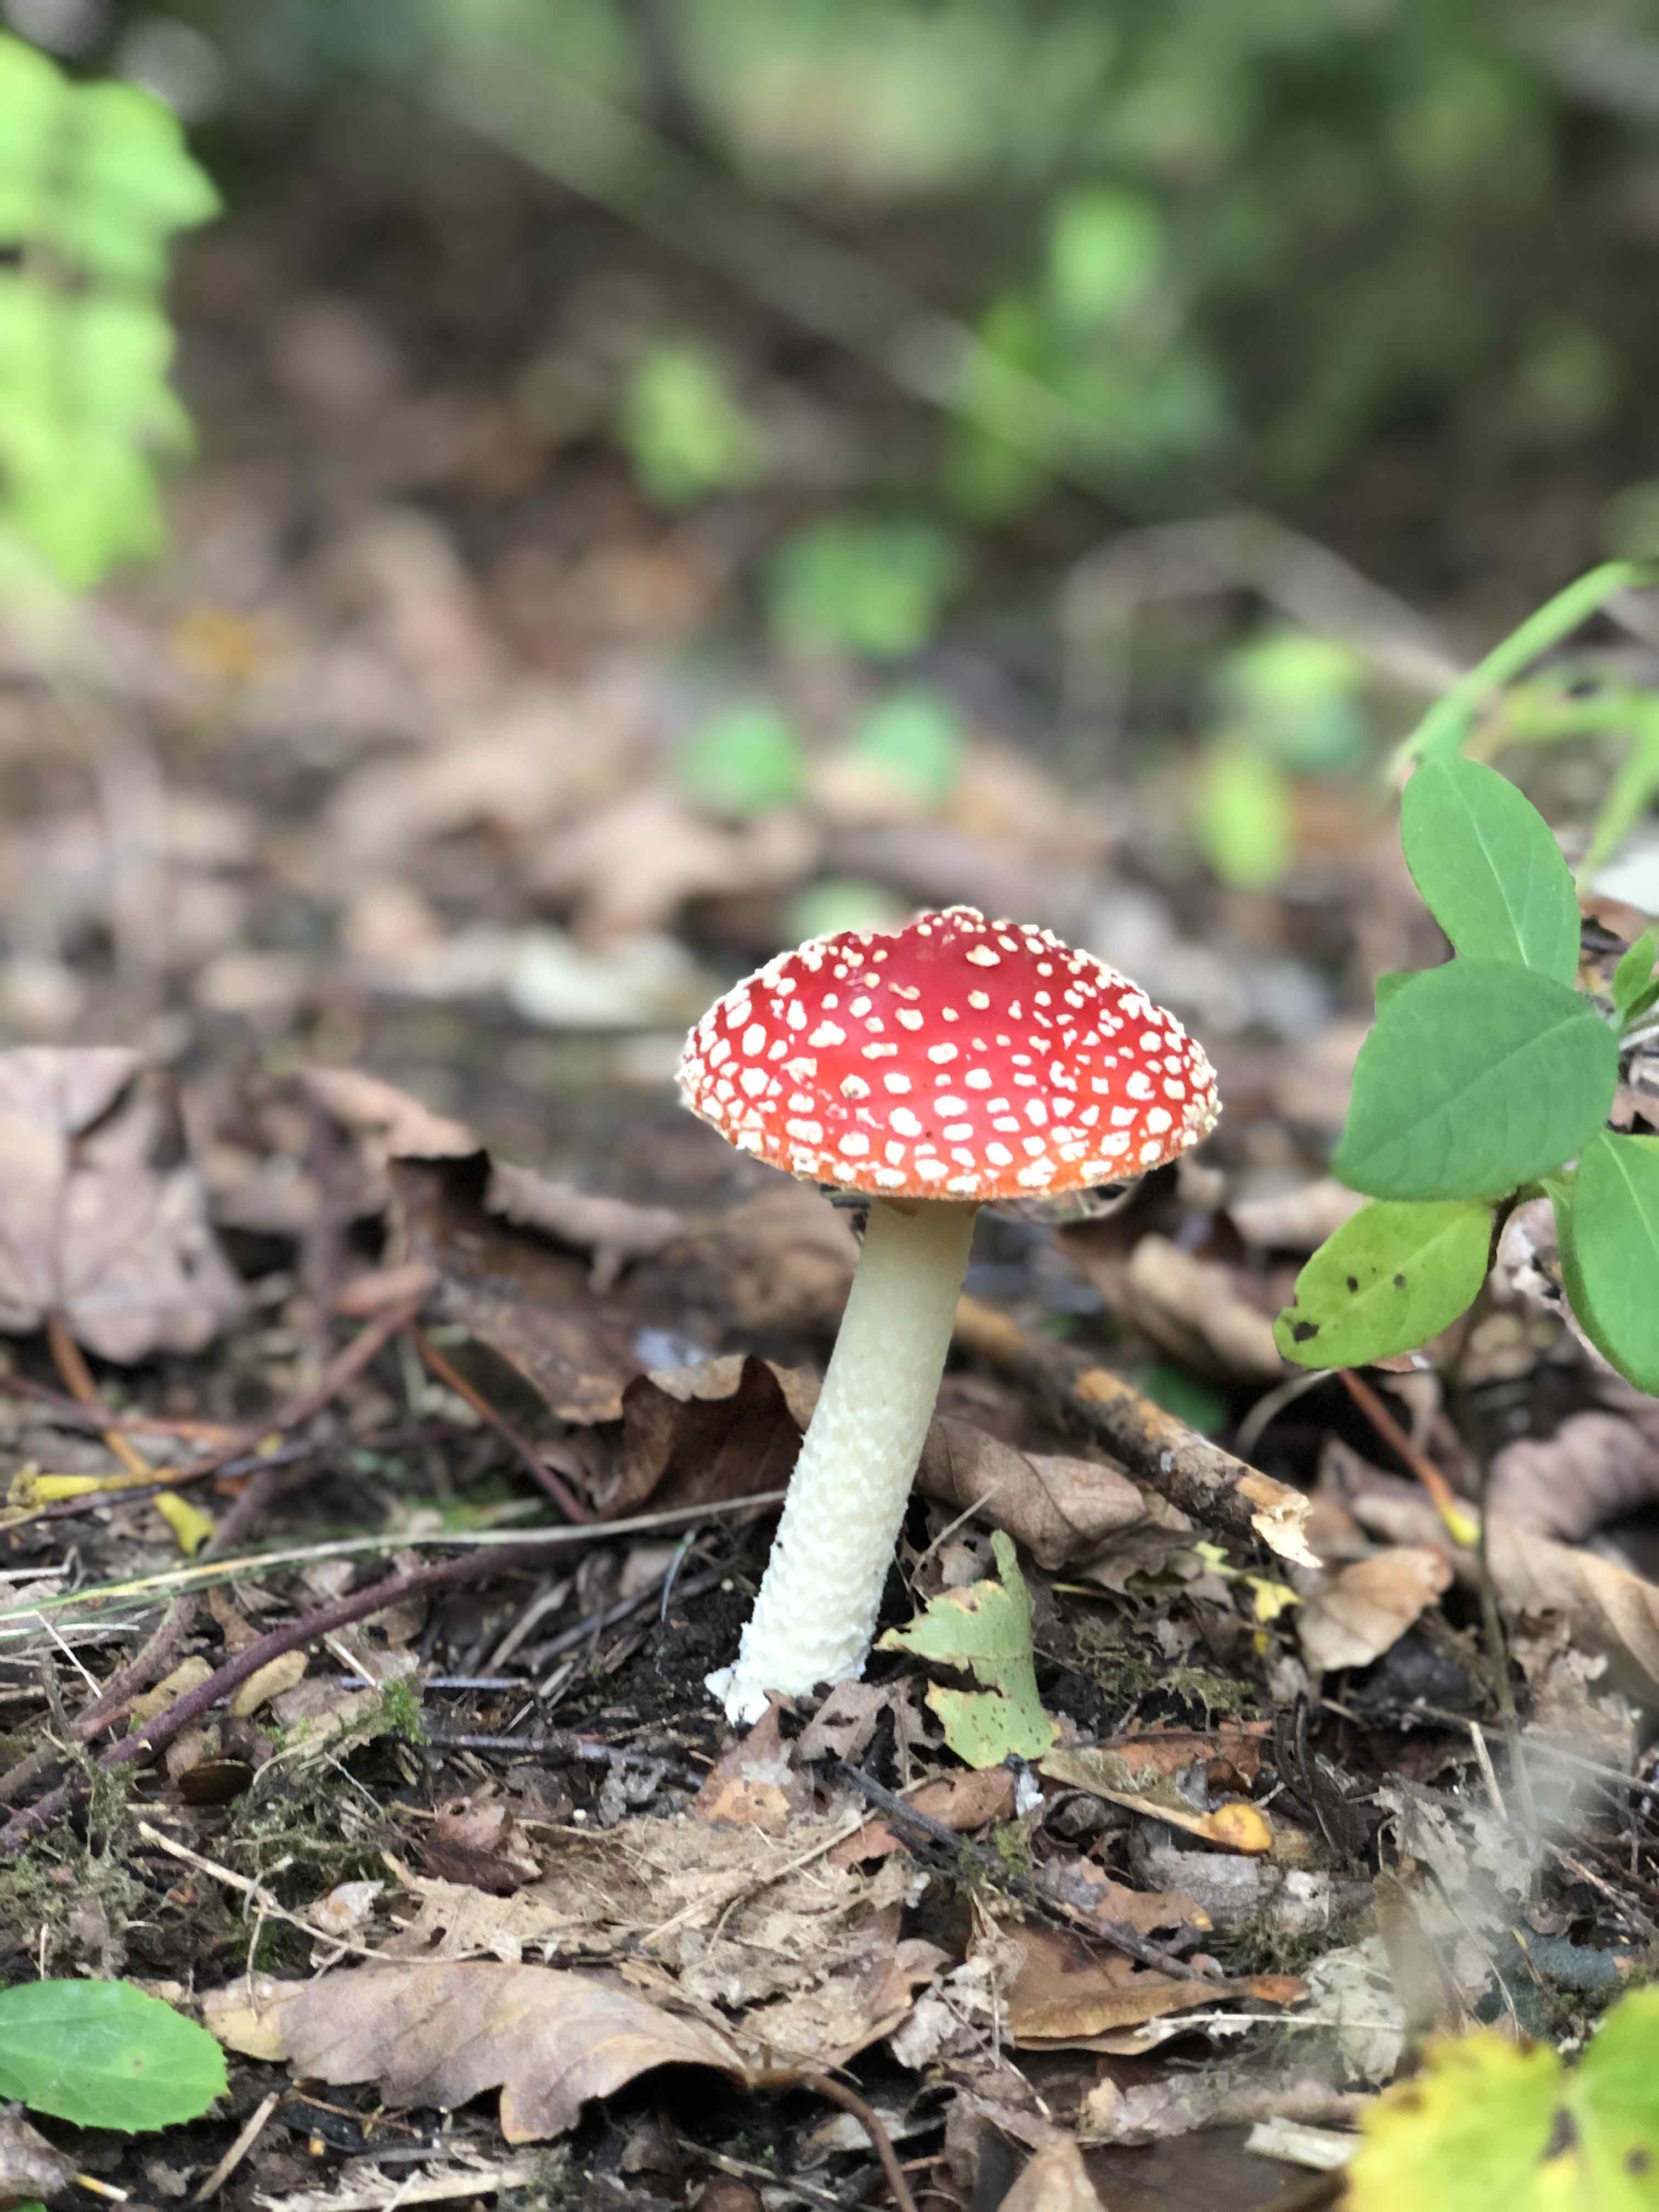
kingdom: Fungi
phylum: Basidiomycota
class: Agaricomycetes
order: Agaricales
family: Amanitaceae
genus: Amanita
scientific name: Amanita muscaria
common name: rød fluesvamp
